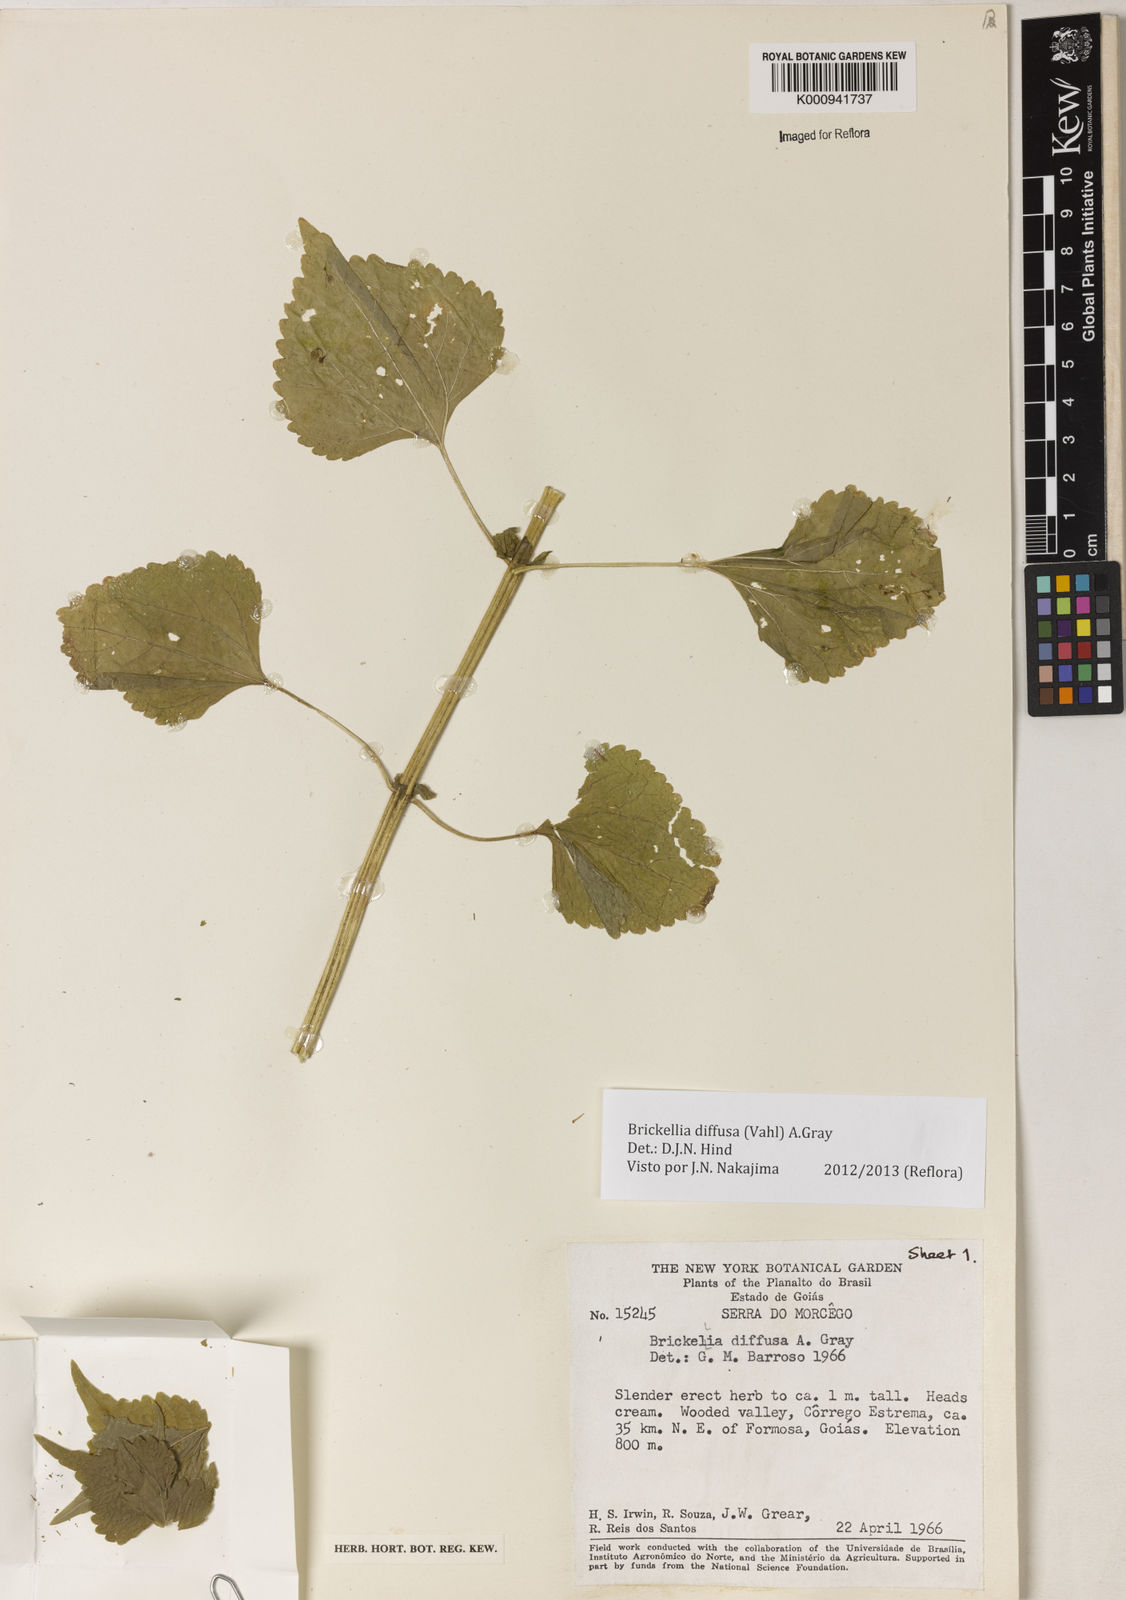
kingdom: Plantae
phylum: Tracheophyta
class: Magnoliopsida
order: Asterales
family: Asteraceae
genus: Brickellia
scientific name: Brickellia diffusa
